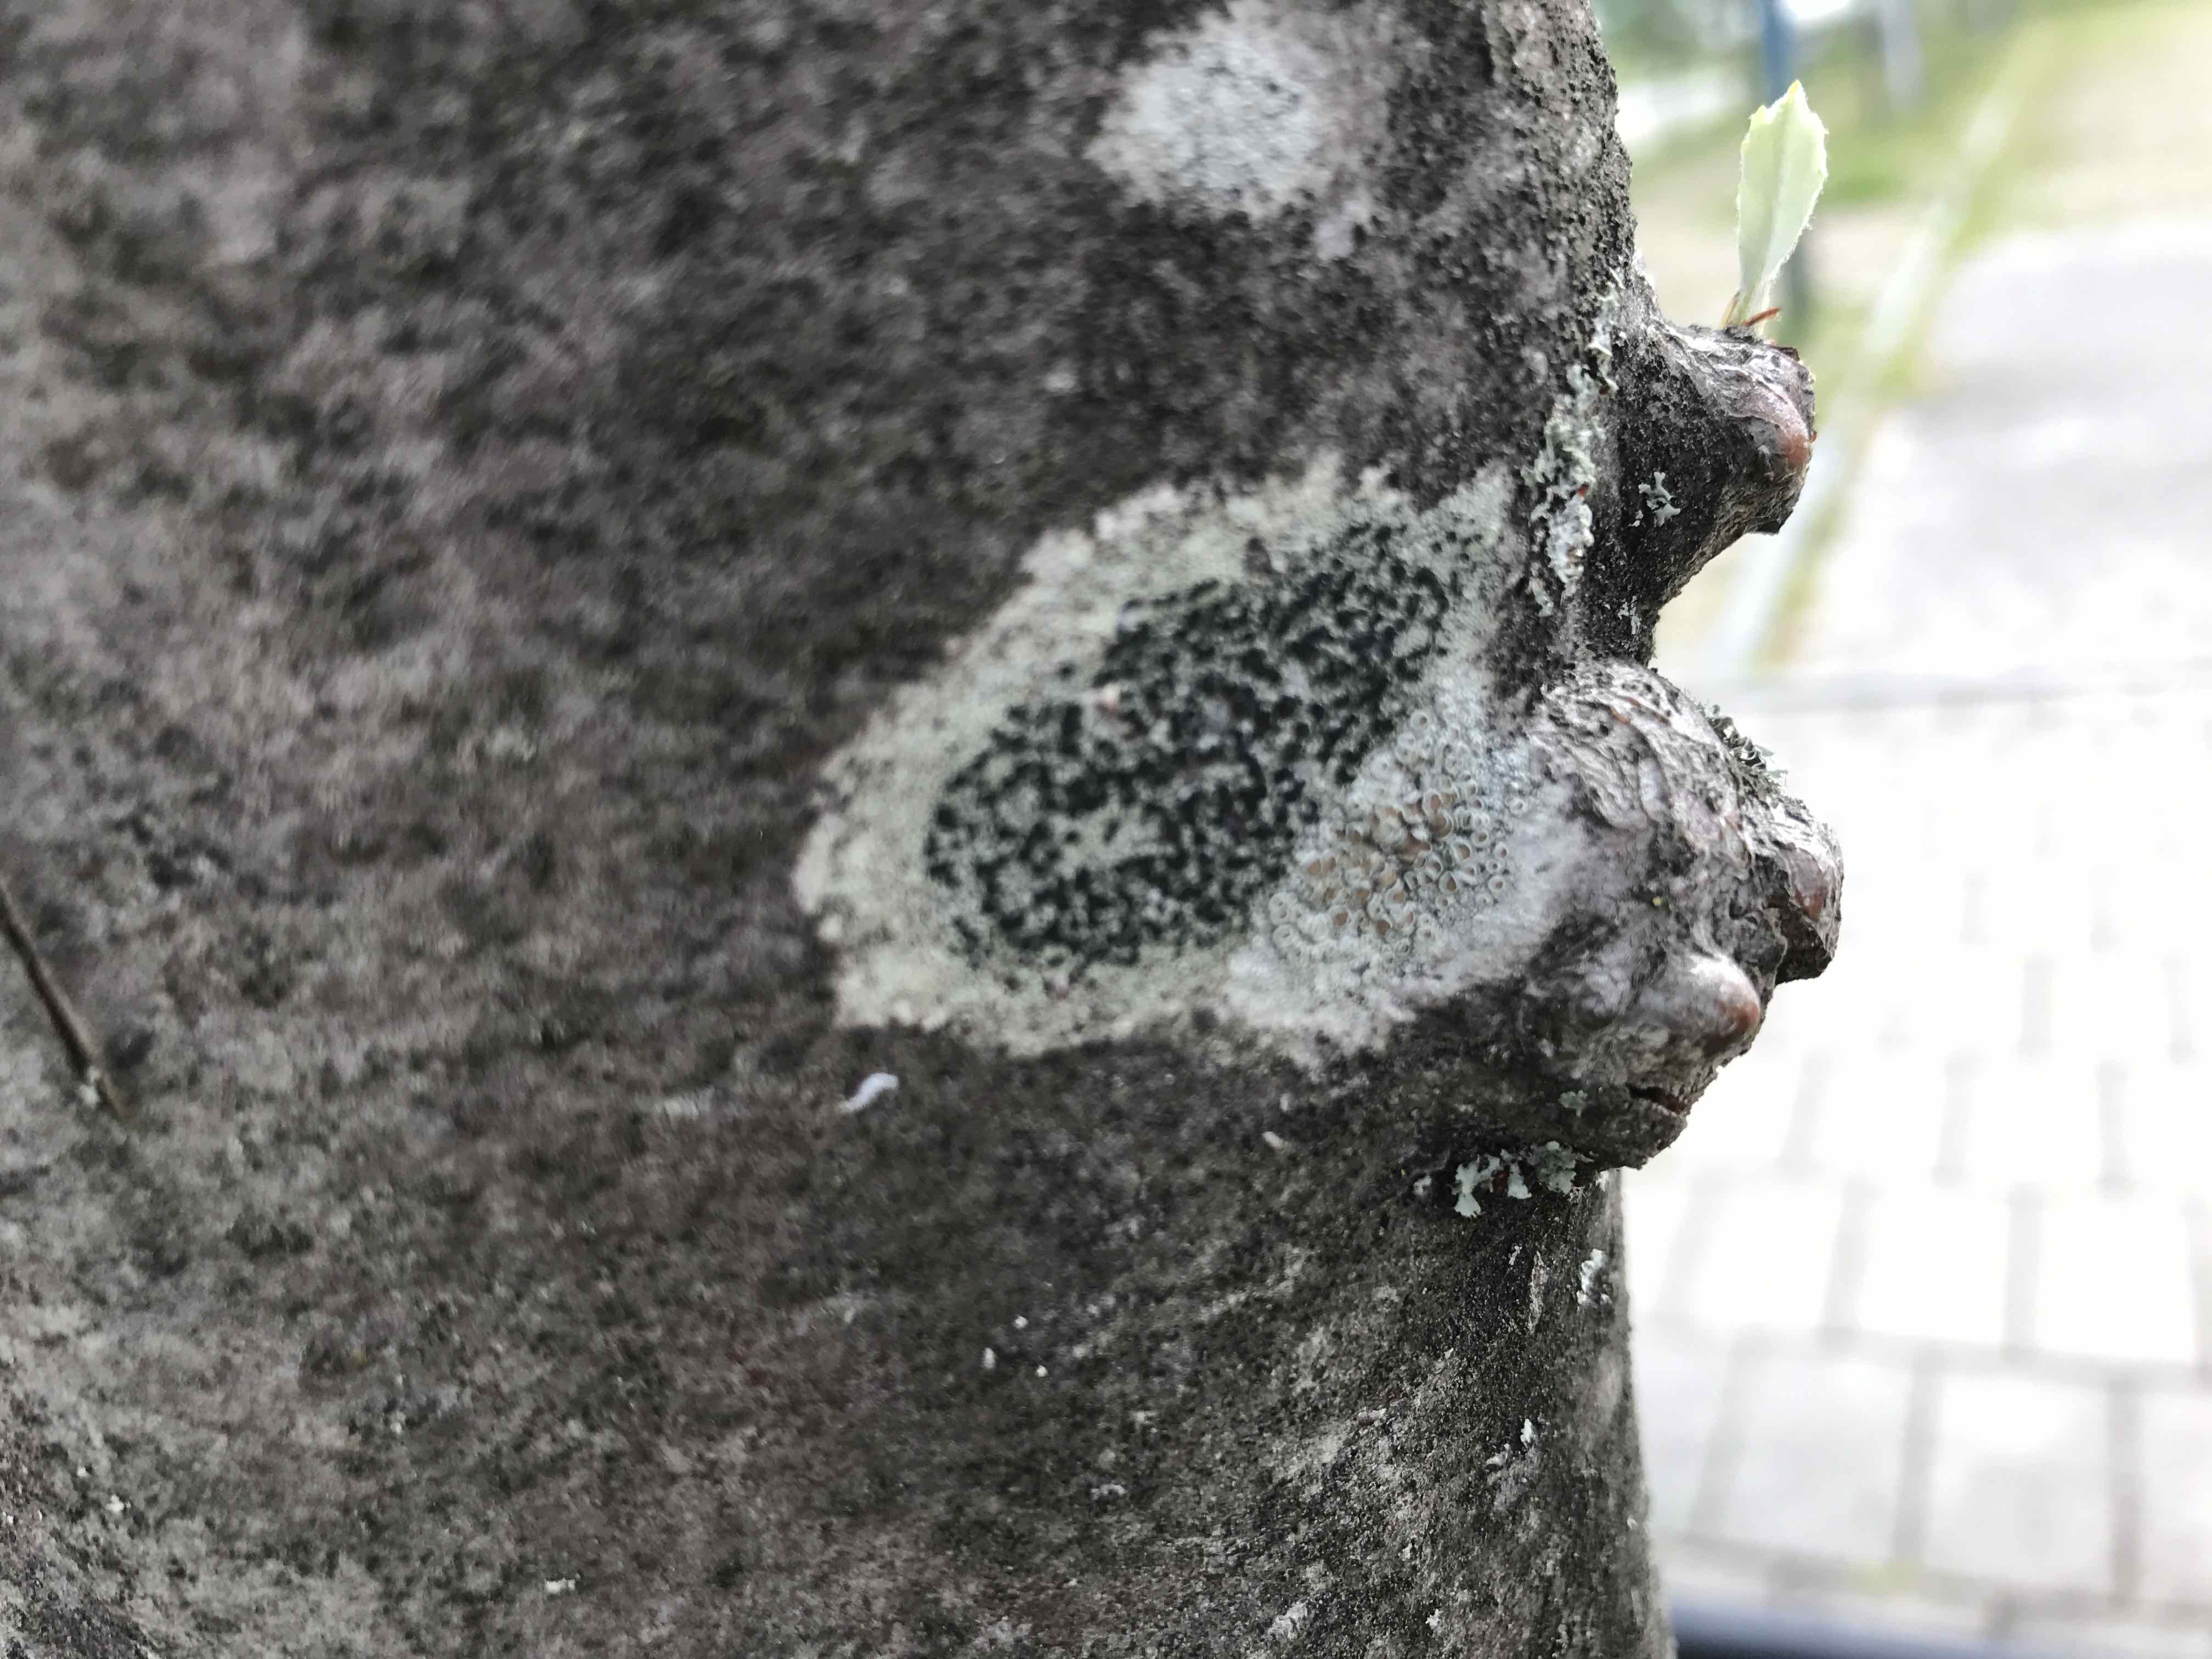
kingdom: Fungi
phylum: Ascomycota
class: Lecanoromycetes
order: Lecanorales
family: Parmeliaceae
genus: Lichen
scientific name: Lichen
